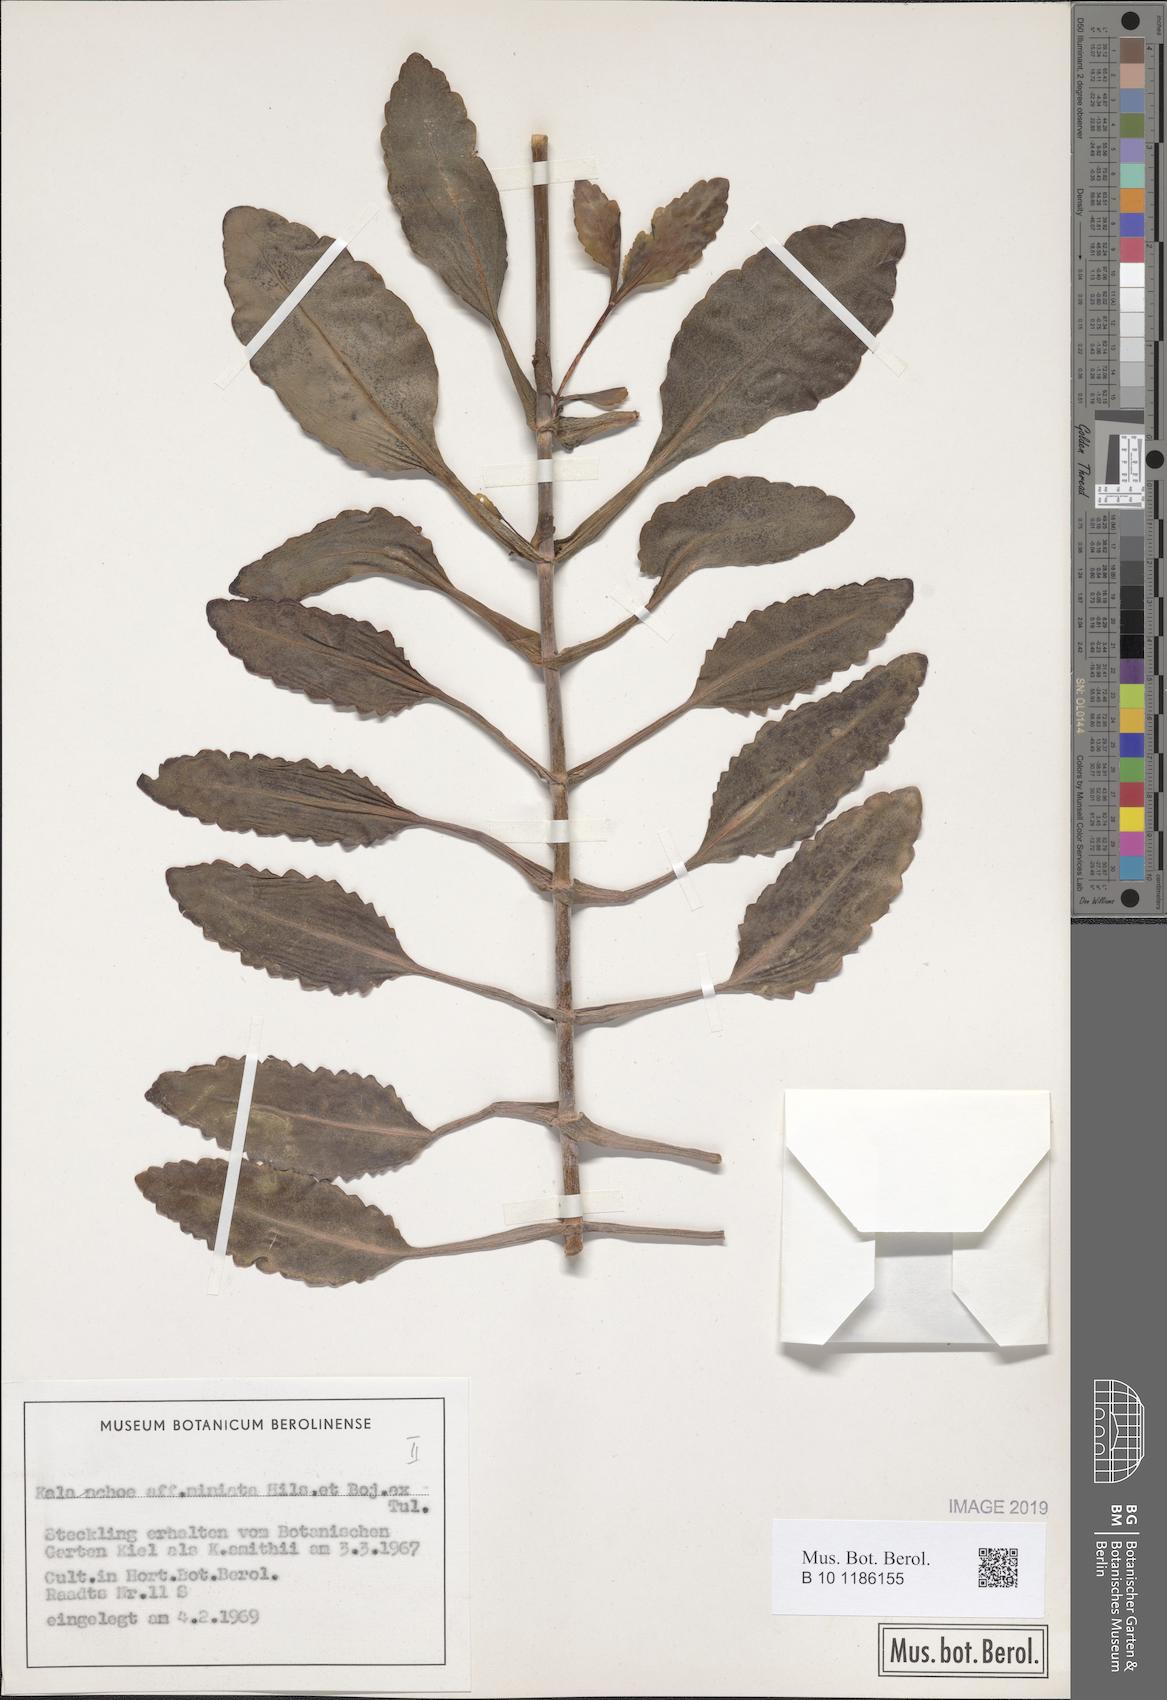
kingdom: Plantae
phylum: Tracheophyta
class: Magnoliopsida
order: Saxifragales
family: Crassulaceae
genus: Kalanchoe
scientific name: Kalanchoe miniata
